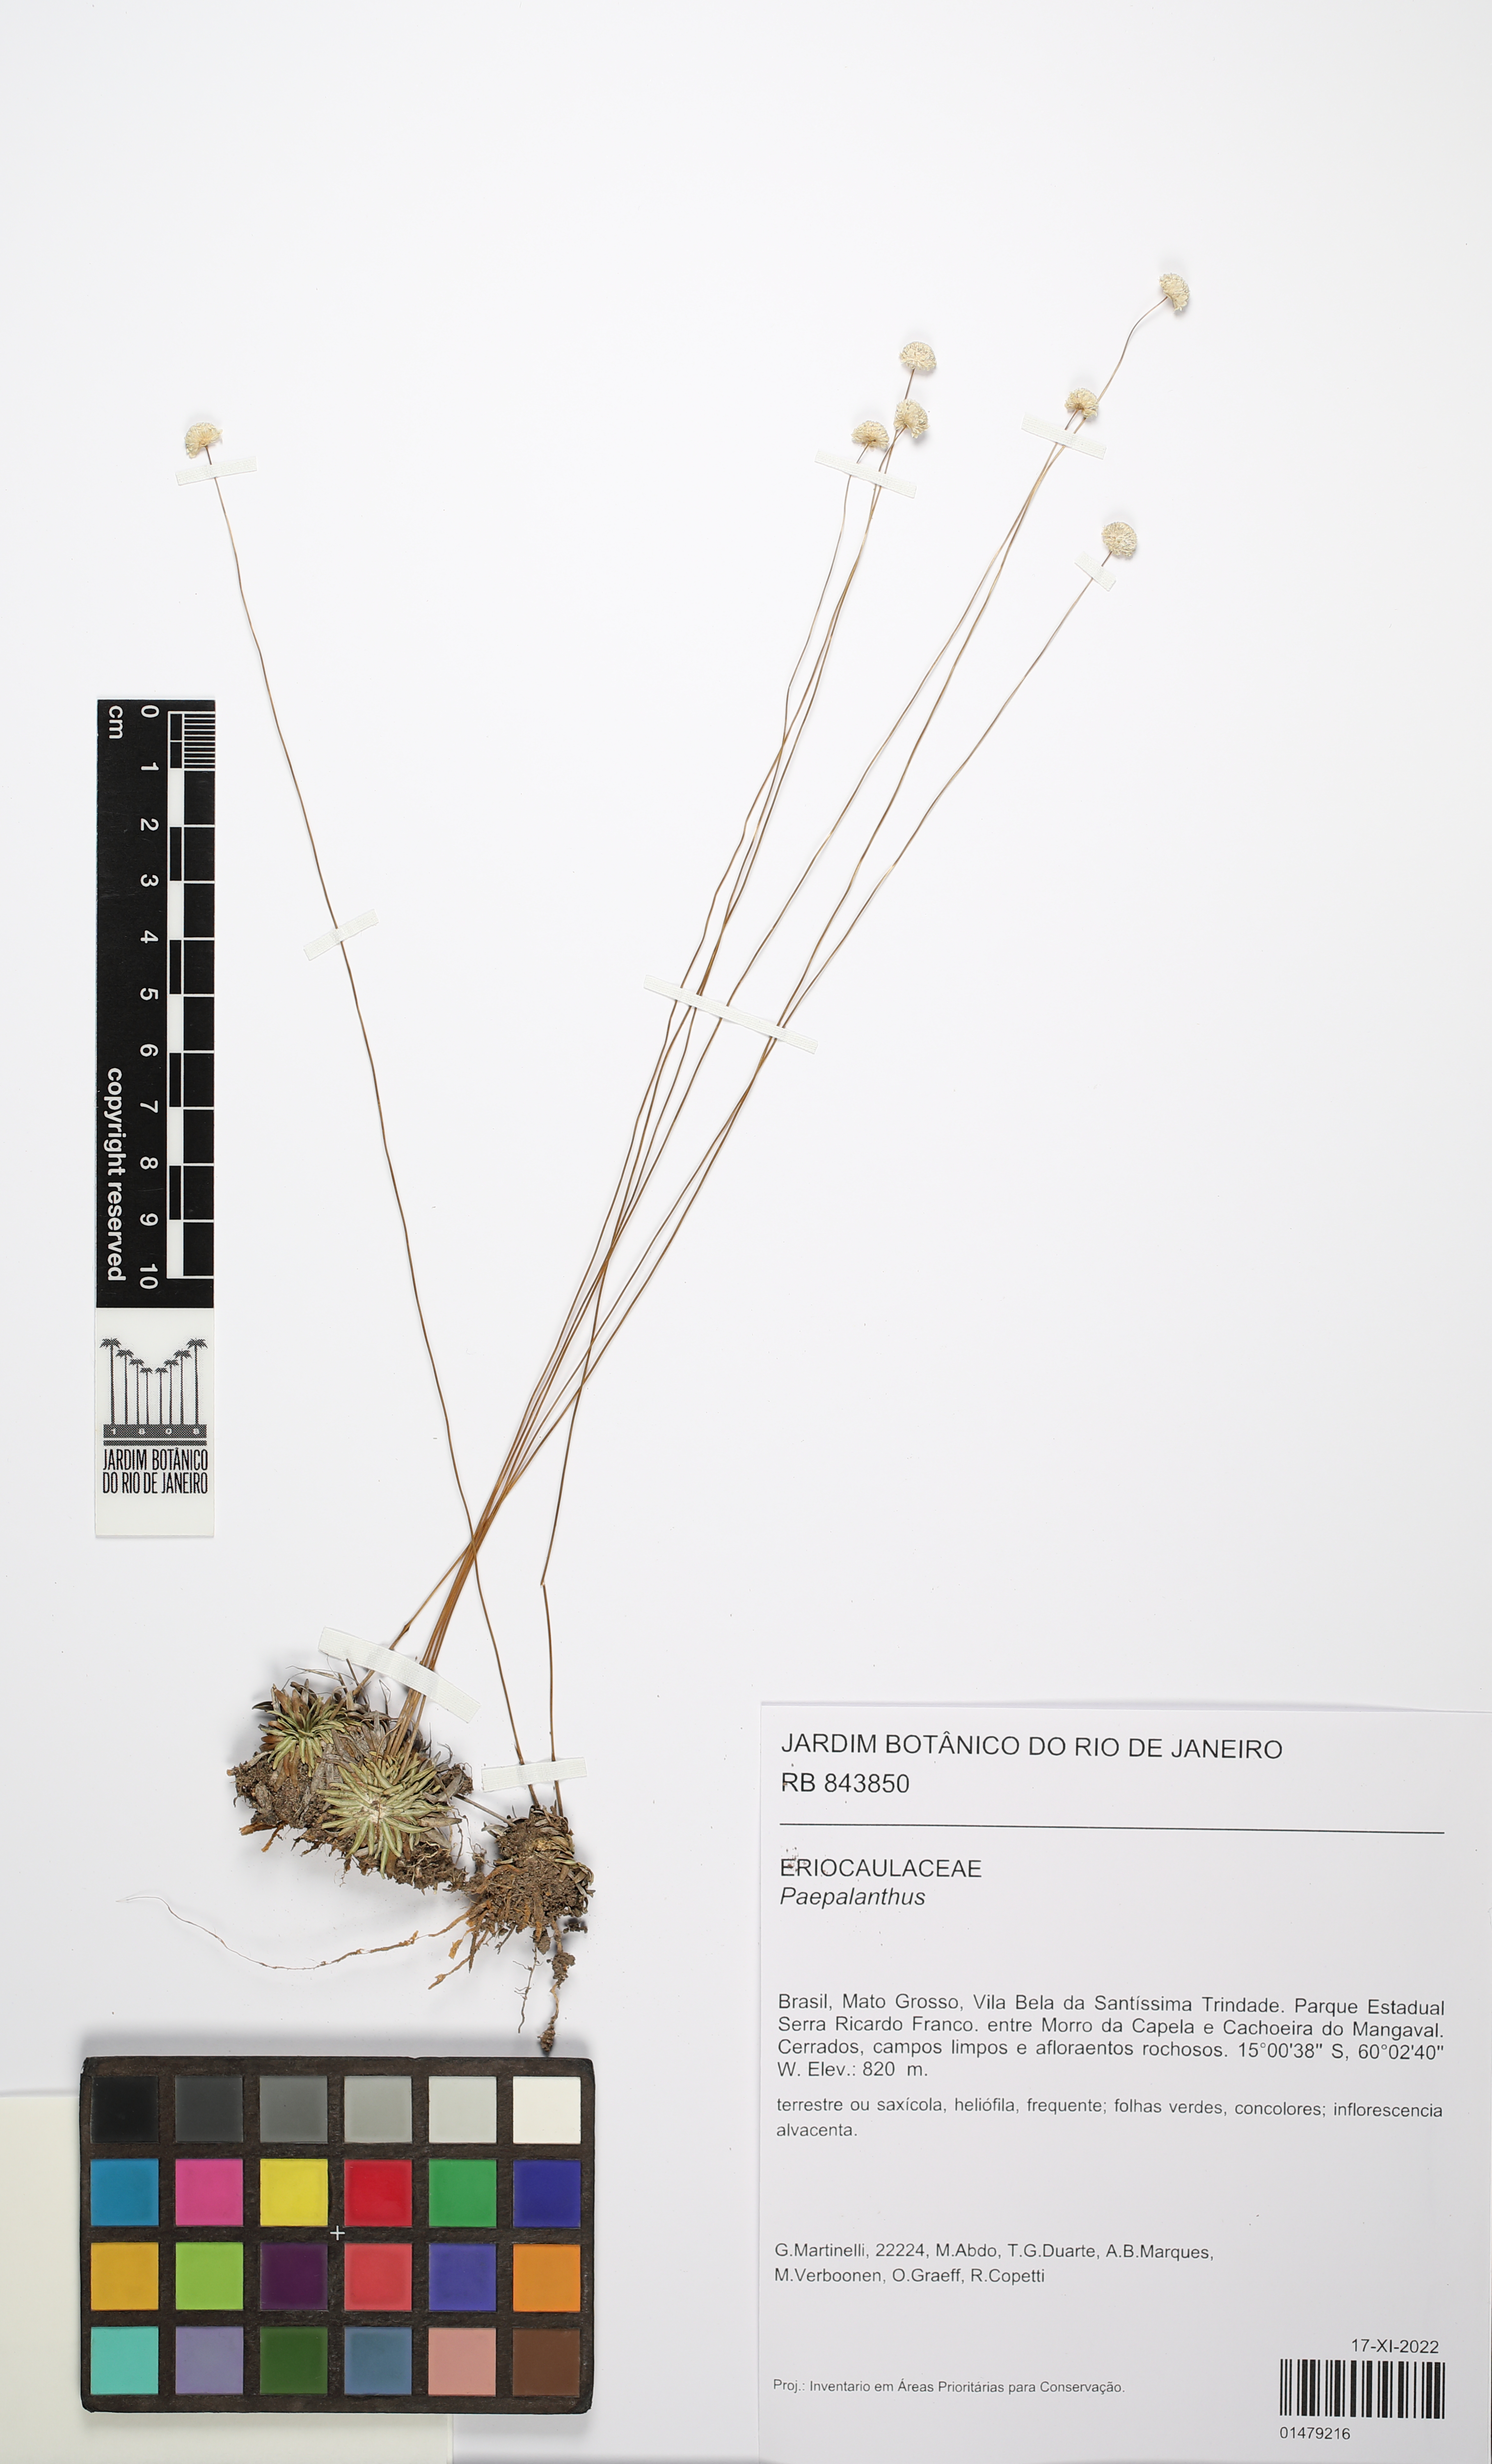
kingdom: Plantae
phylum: Tracheophyta
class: Liliopsida
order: Poales
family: Eriocaulaceae
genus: Paepalanthus
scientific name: Paepalanthus
